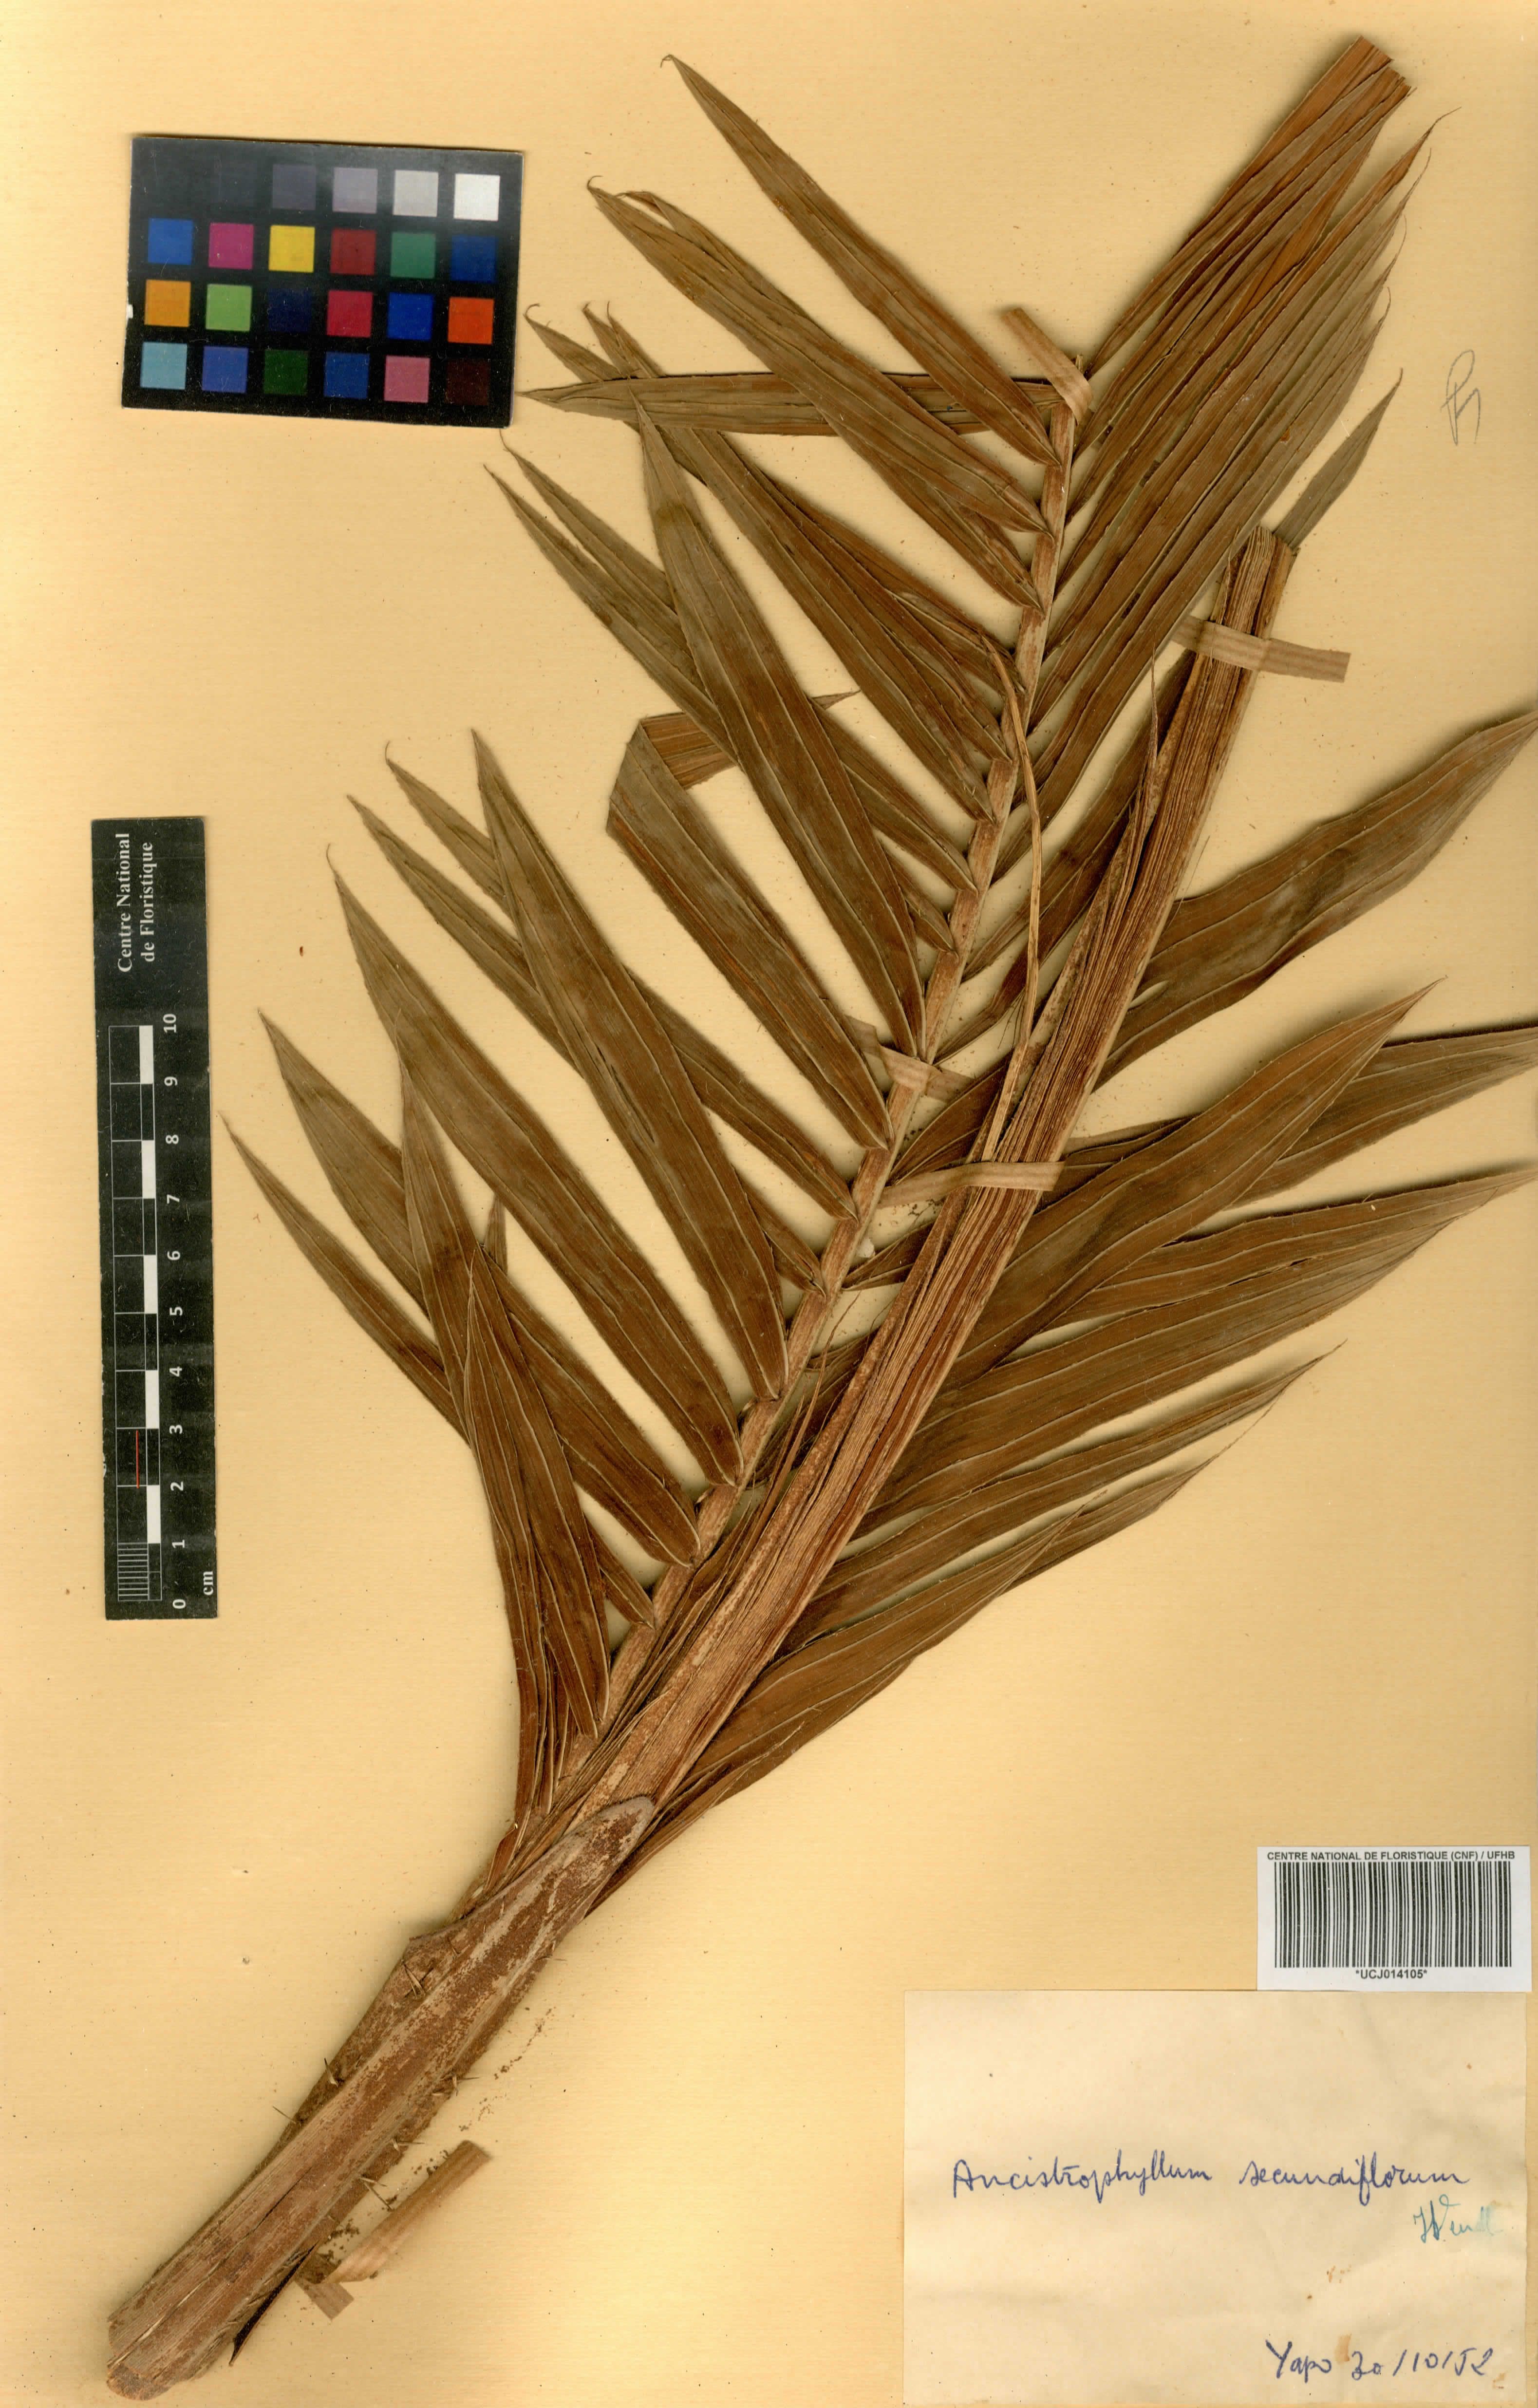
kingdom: Plantae
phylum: Tracheophyta
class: Liliopsida
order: Arecales
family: Arecaceae
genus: Laccosperma
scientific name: Laccosperma secundiflorum
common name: Rattan
